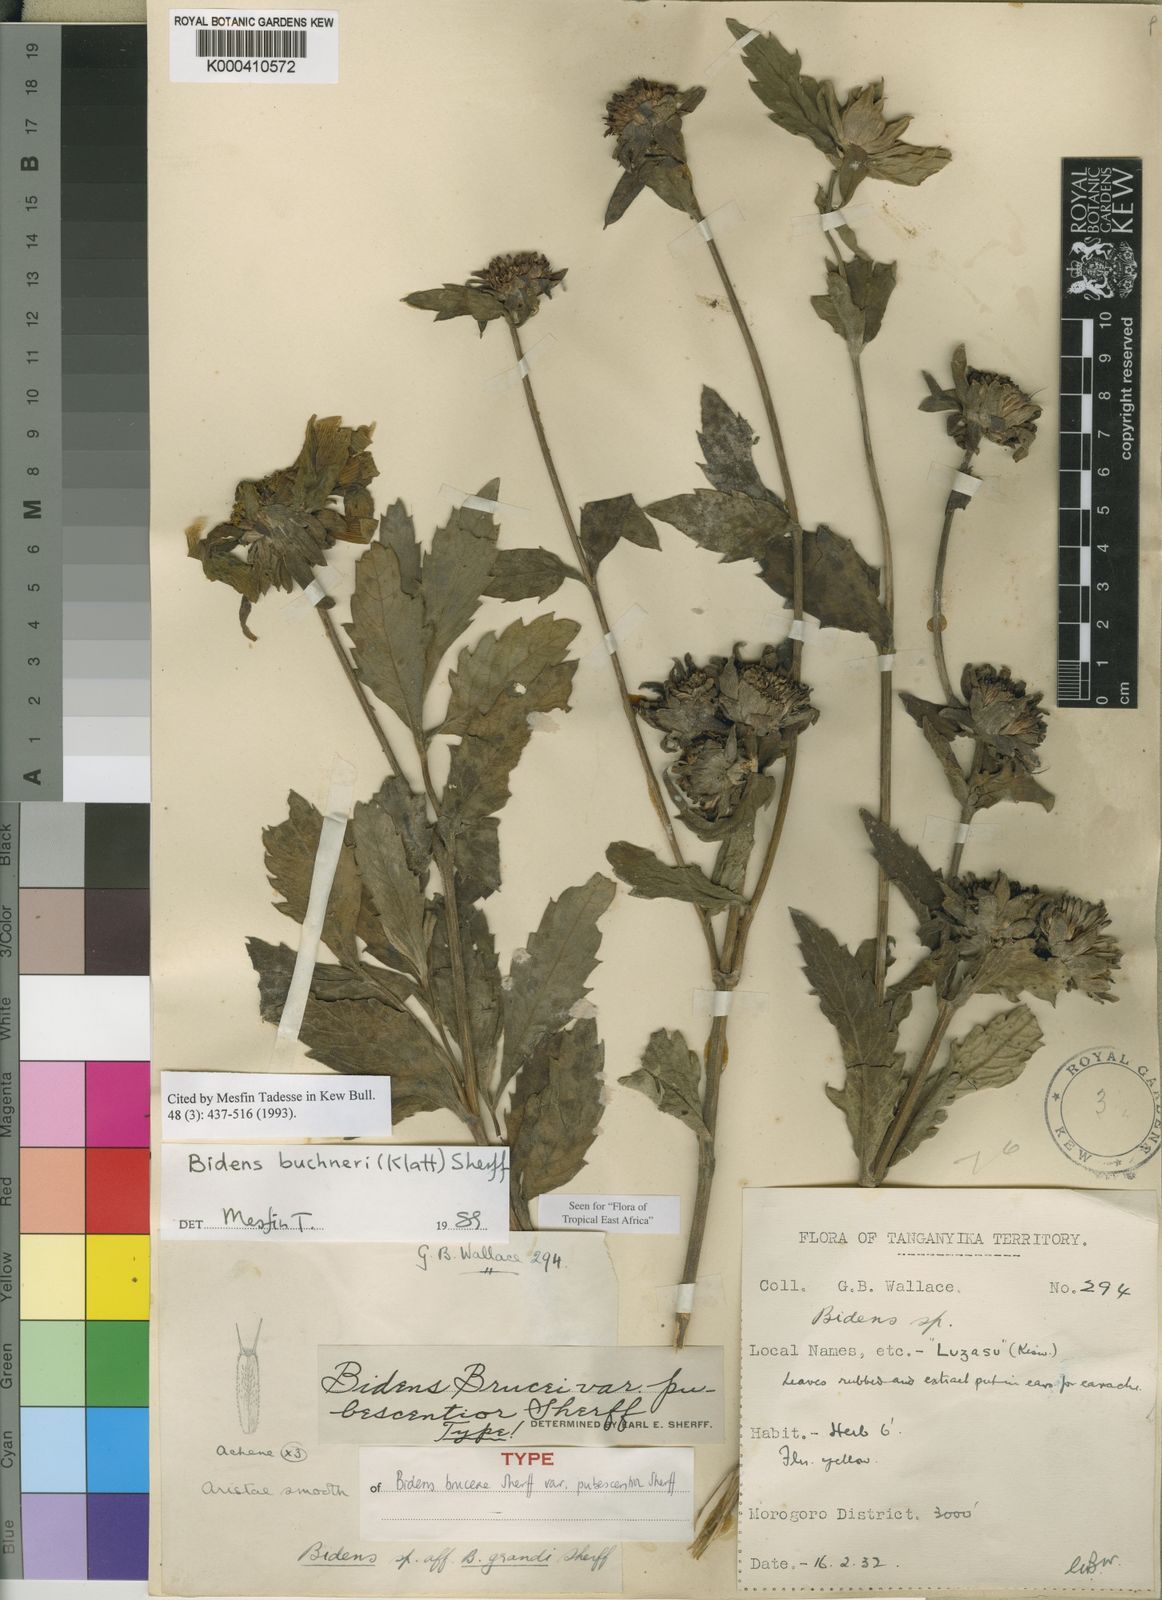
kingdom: Plantae
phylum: Tracheophyta
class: Magnoliopsida
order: Asterales
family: Asteraceae
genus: Bidens
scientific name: Bidens buchneri
